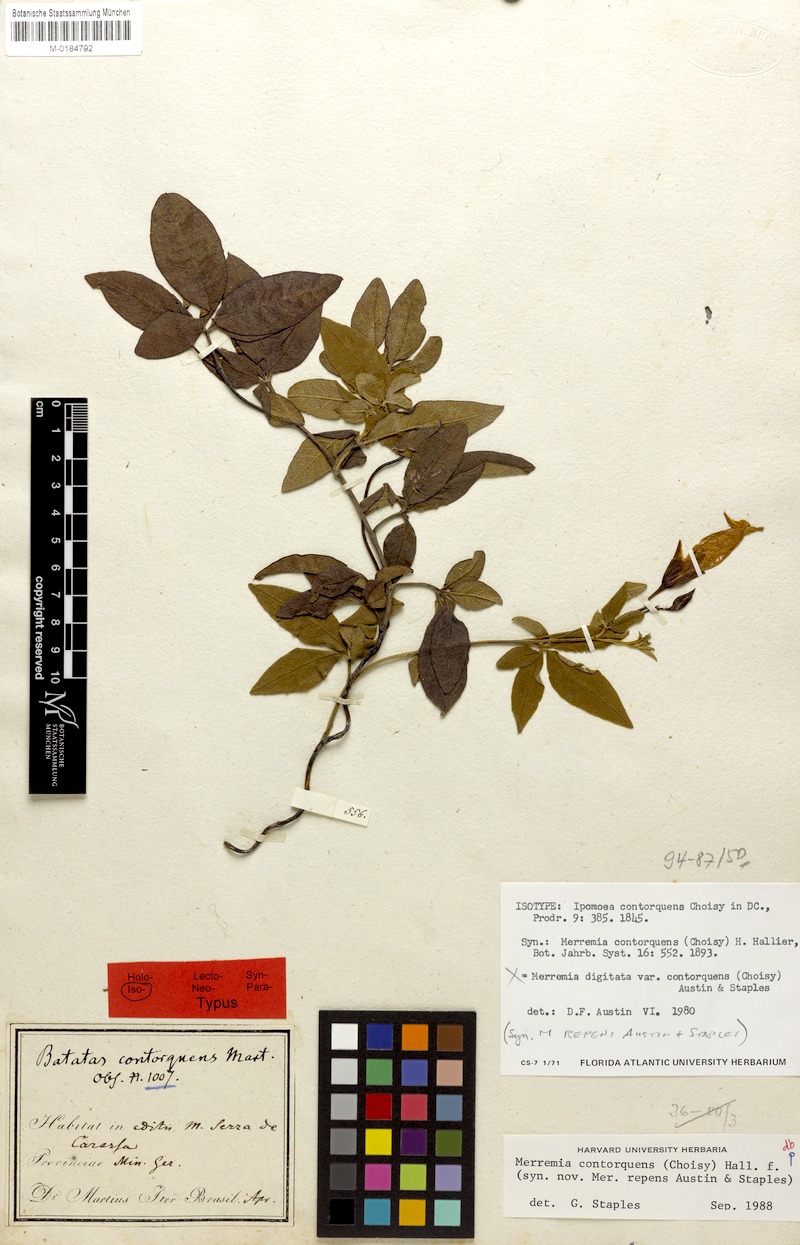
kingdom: Plantae
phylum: Tracheophyta
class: Magnoliopsida
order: Solanales
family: Convolvulaceae
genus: Distimake
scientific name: Distimake contorquens
